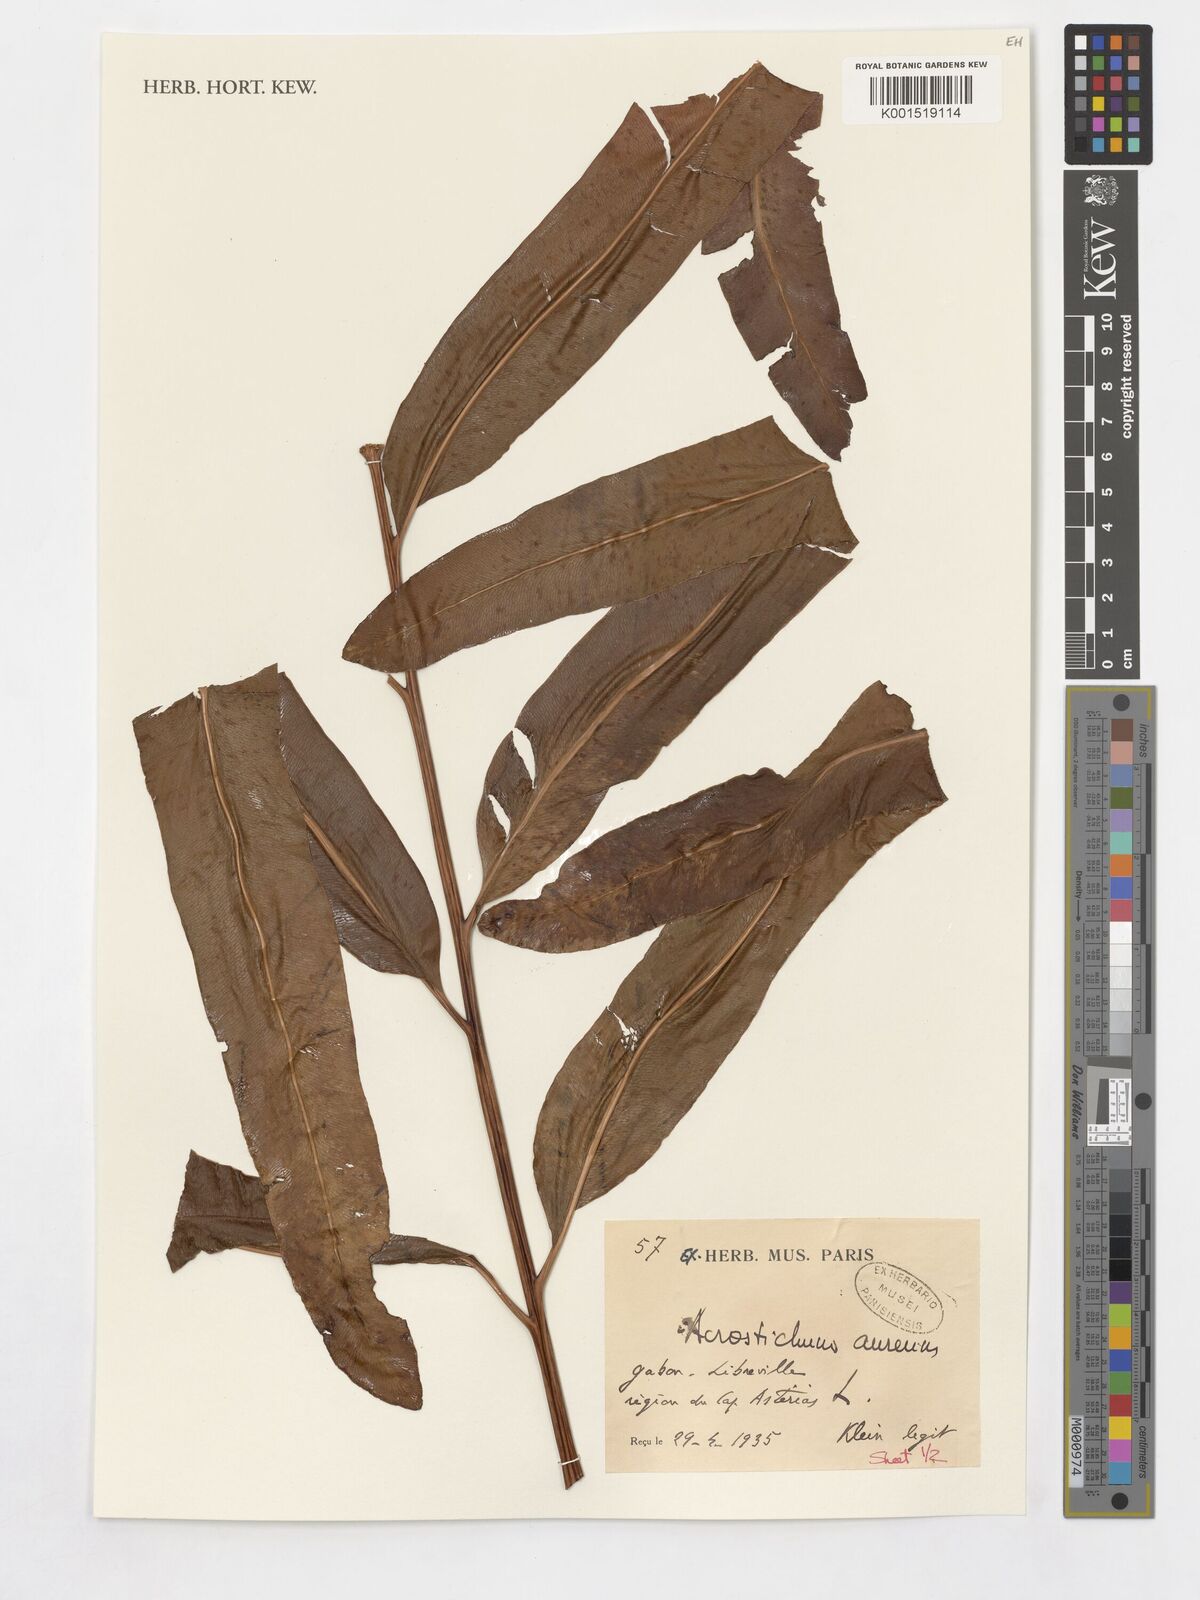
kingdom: Plantae
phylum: Tracheophyta
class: Polypodiopsida
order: Polypodiales
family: Pteridaceae
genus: Acrostichum
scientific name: Acrostichum aureum
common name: Leather fern
